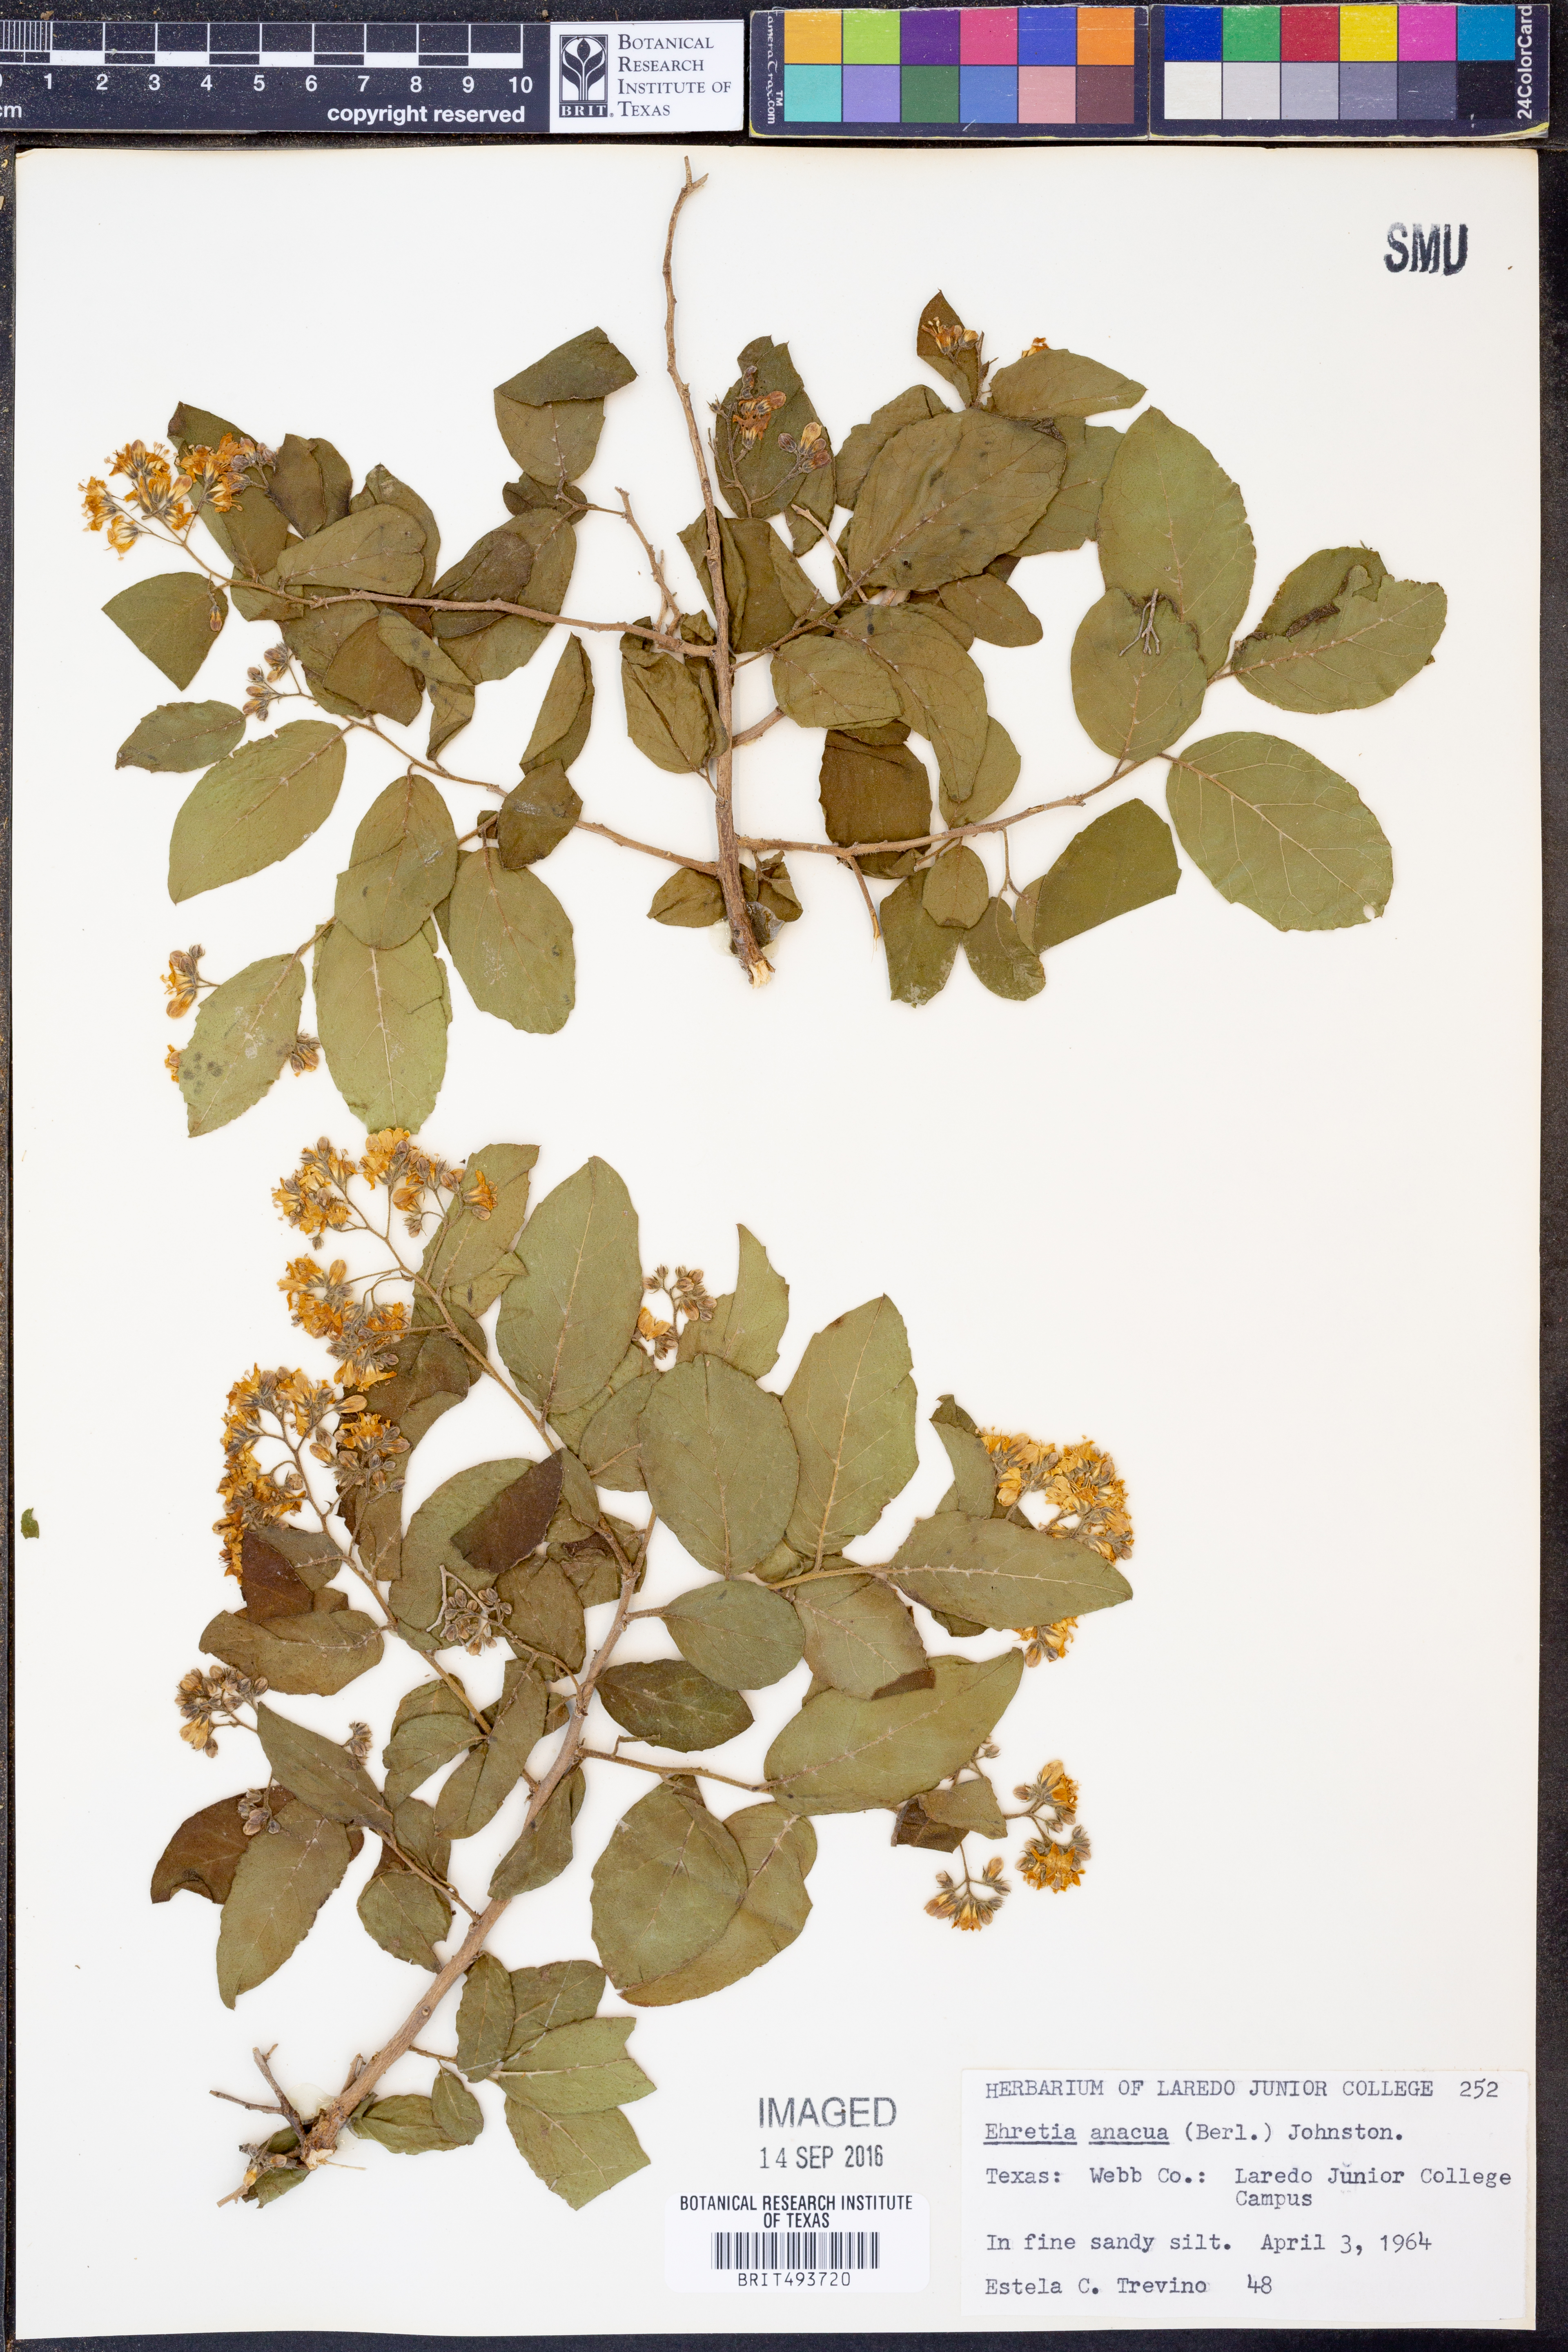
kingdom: Plantae
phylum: Tracheophyta
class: Magnoliopsida
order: Boraginales
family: Ehretiaceae
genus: Ehretia
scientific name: Ehretia anacua
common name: Sugarberry
